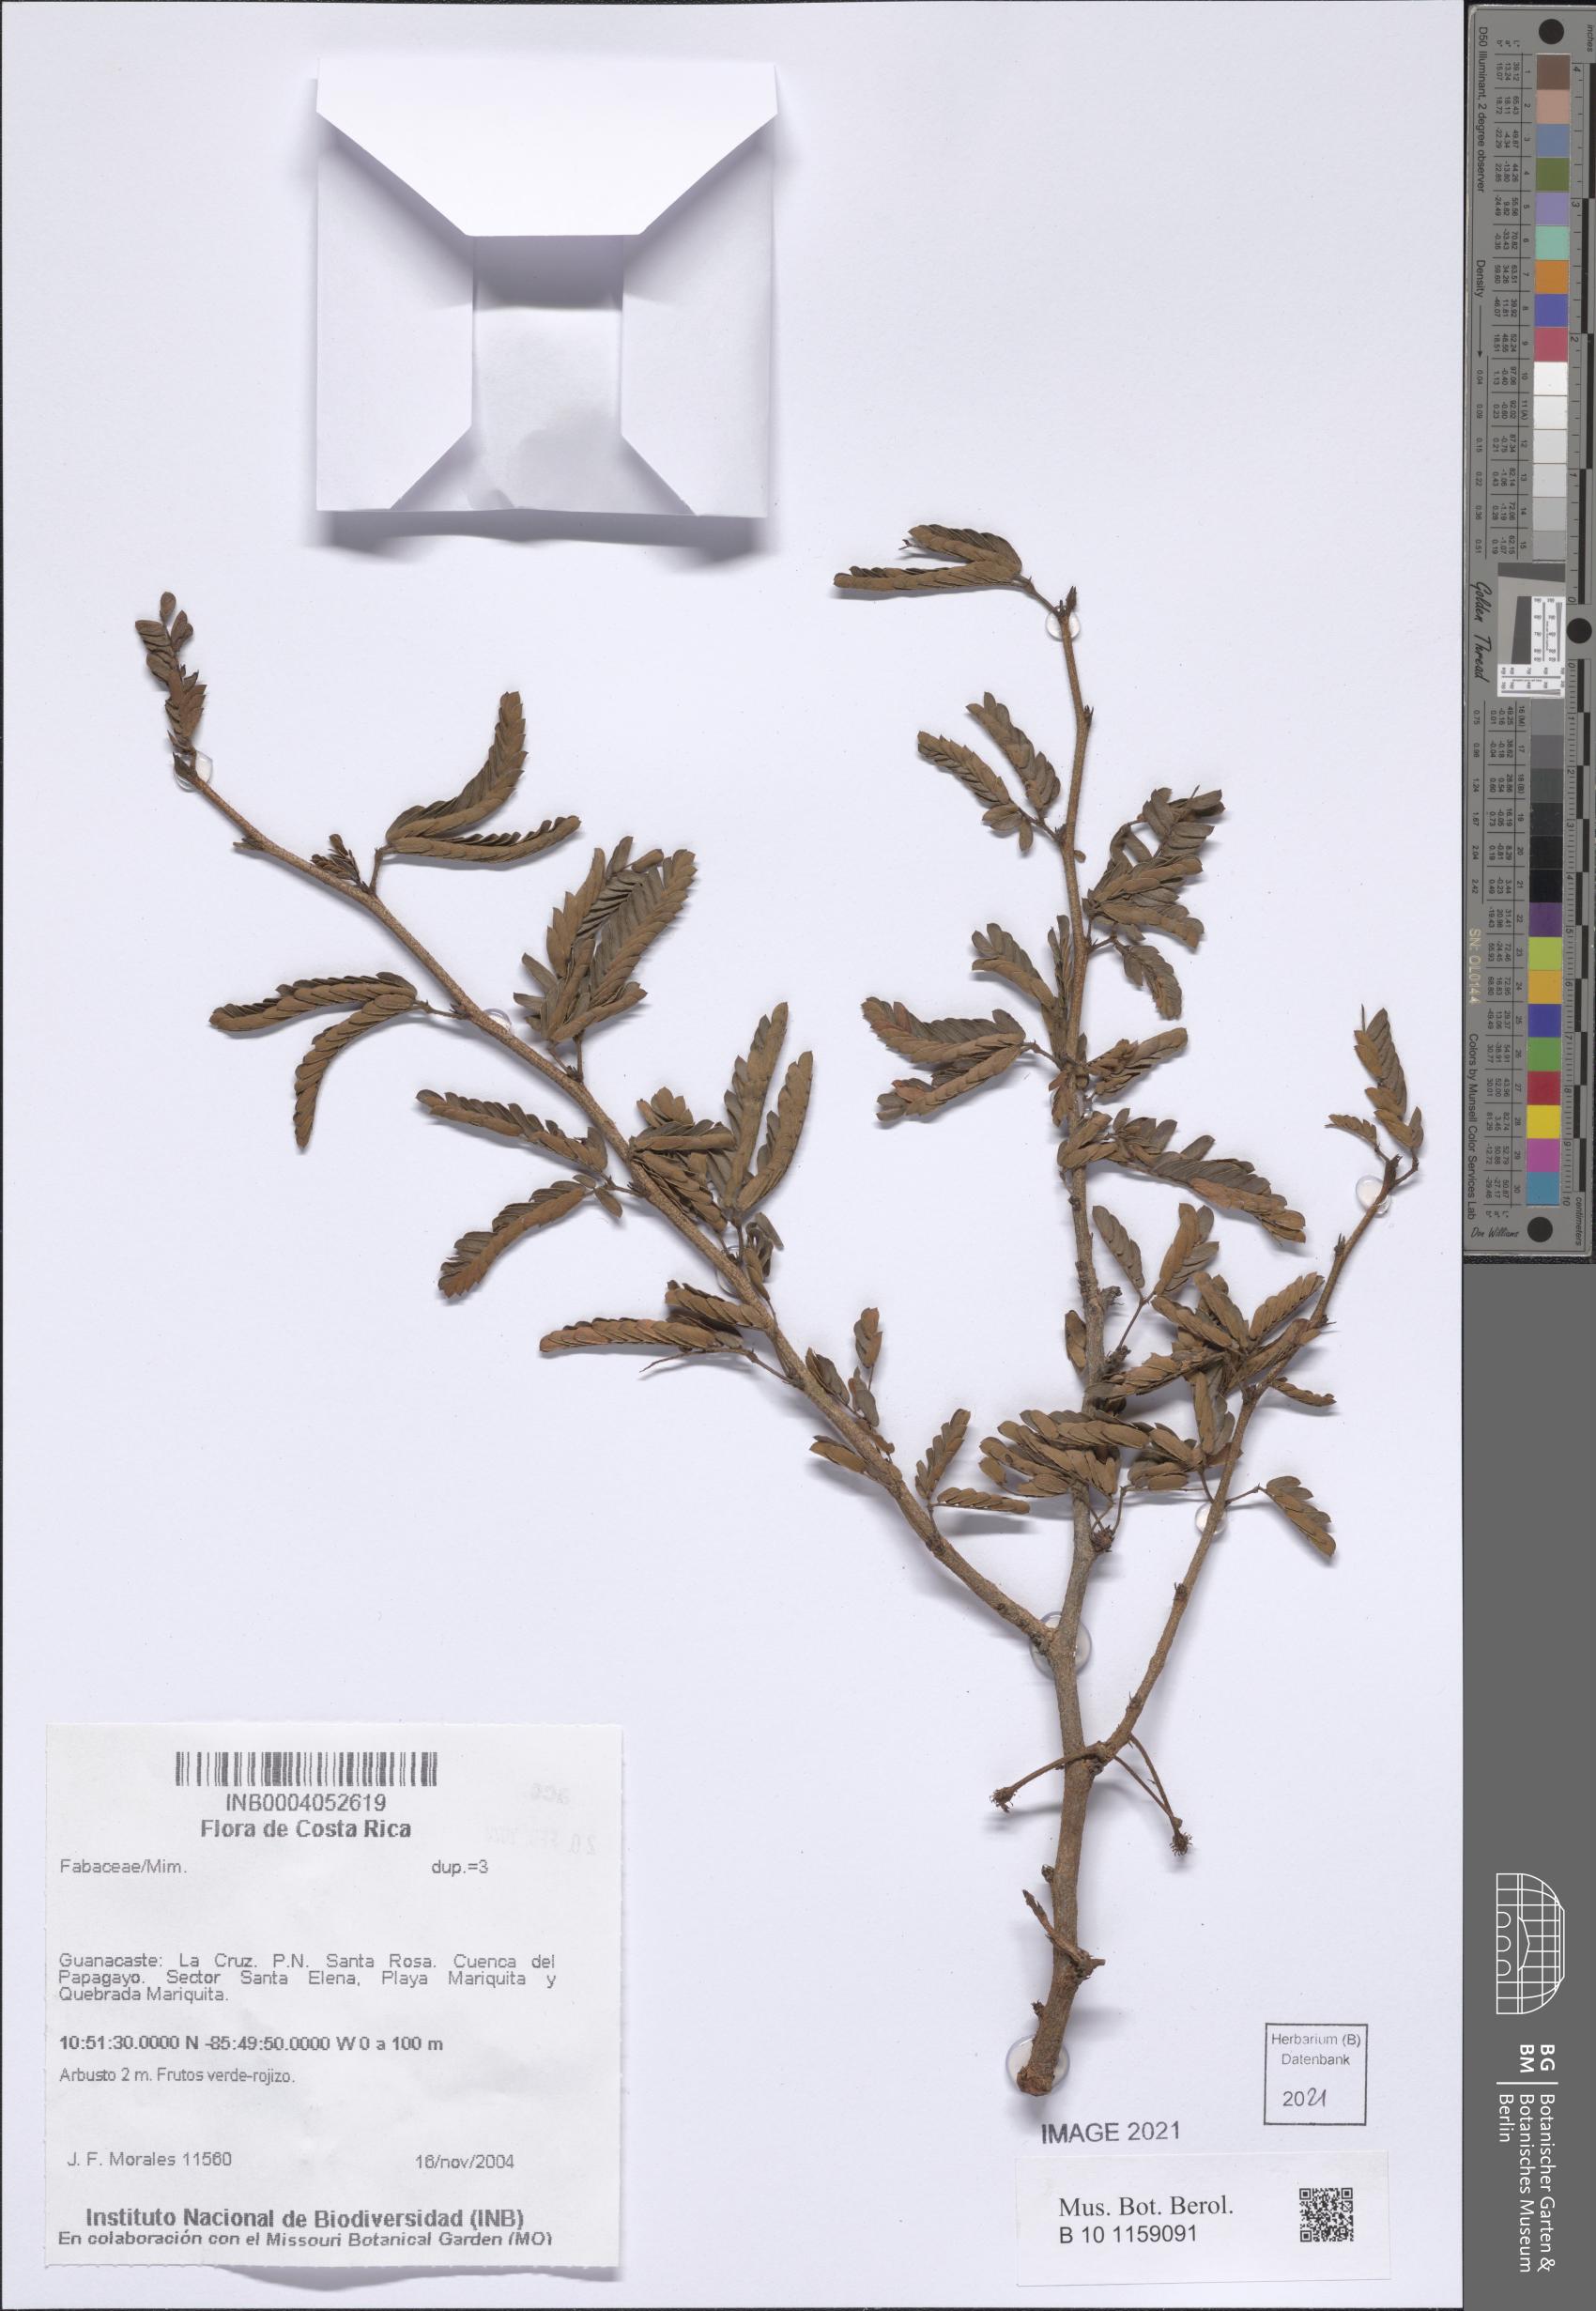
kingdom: Plantae
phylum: Tracheophyta
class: Magnoliopsida
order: Fabales
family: Fabaceae
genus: Mimosa
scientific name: Mimosa tricephala
